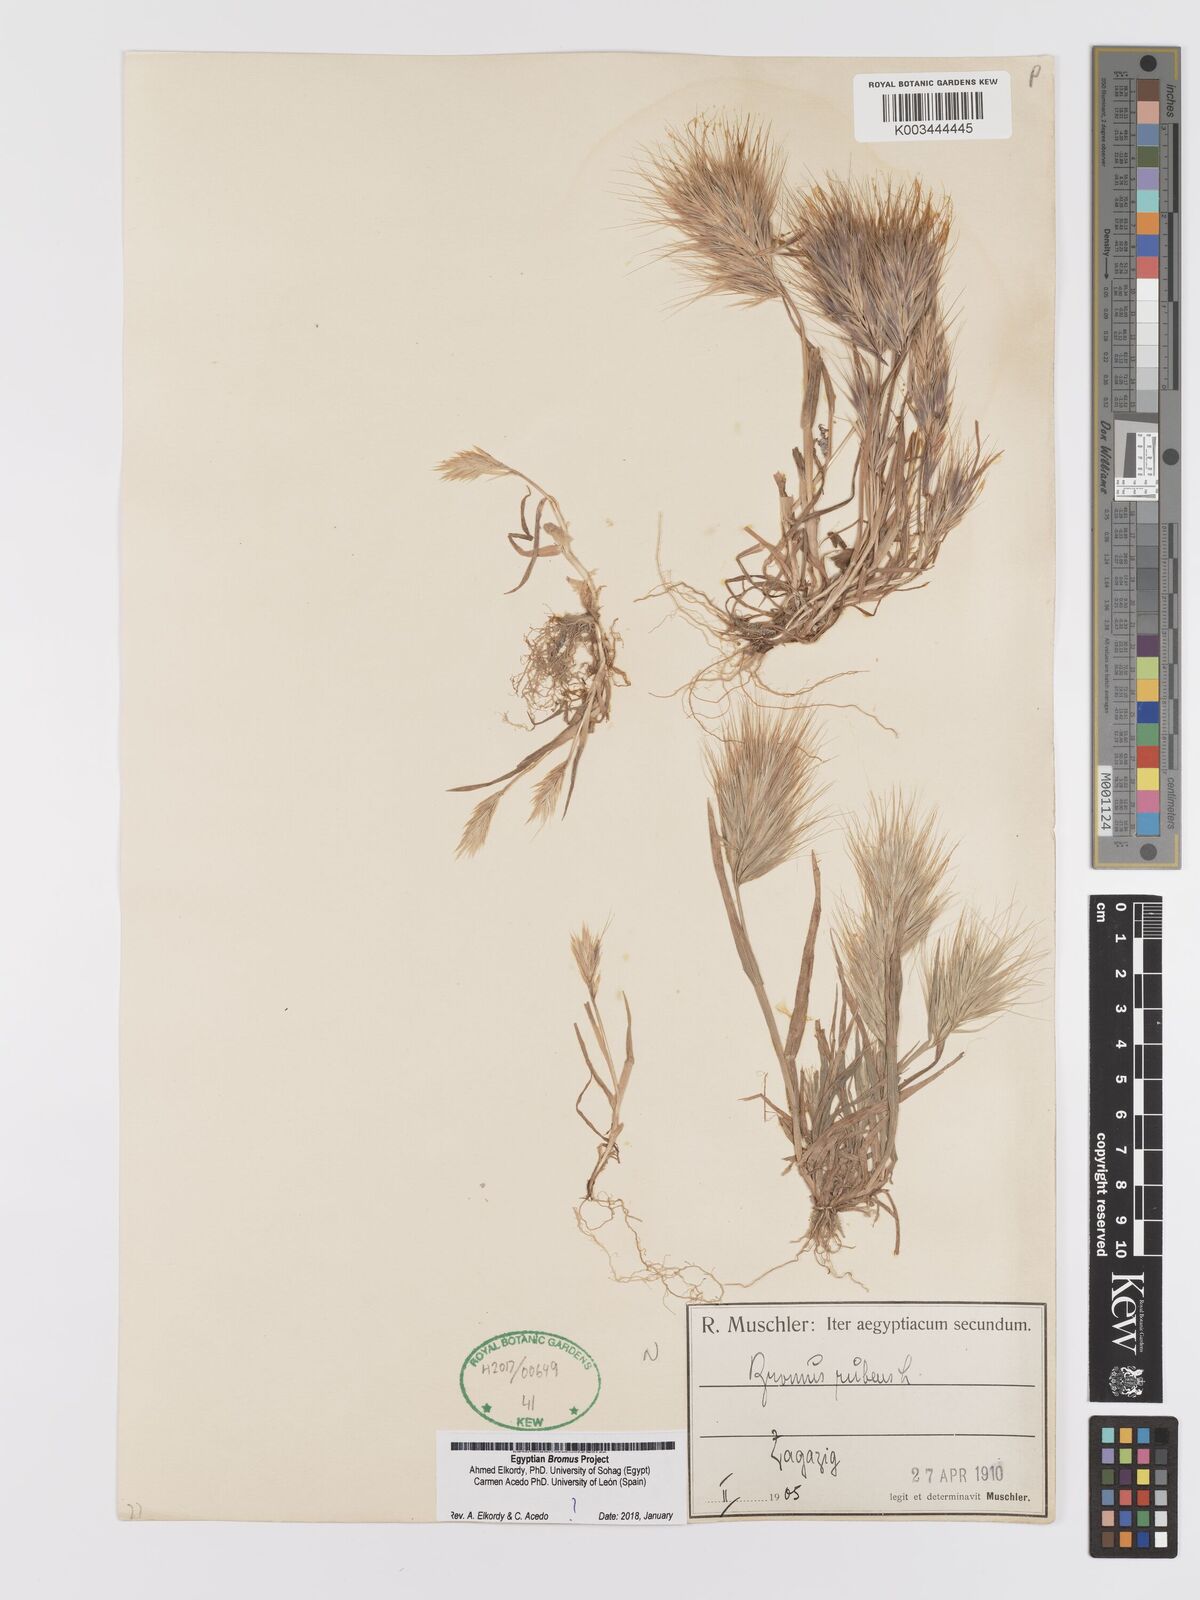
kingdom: Plantae
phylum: Tracheophyta
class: Liliopsida
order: Poales
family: Poaceae
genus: Bromus
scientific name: Bromus rubens
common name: Red brome
